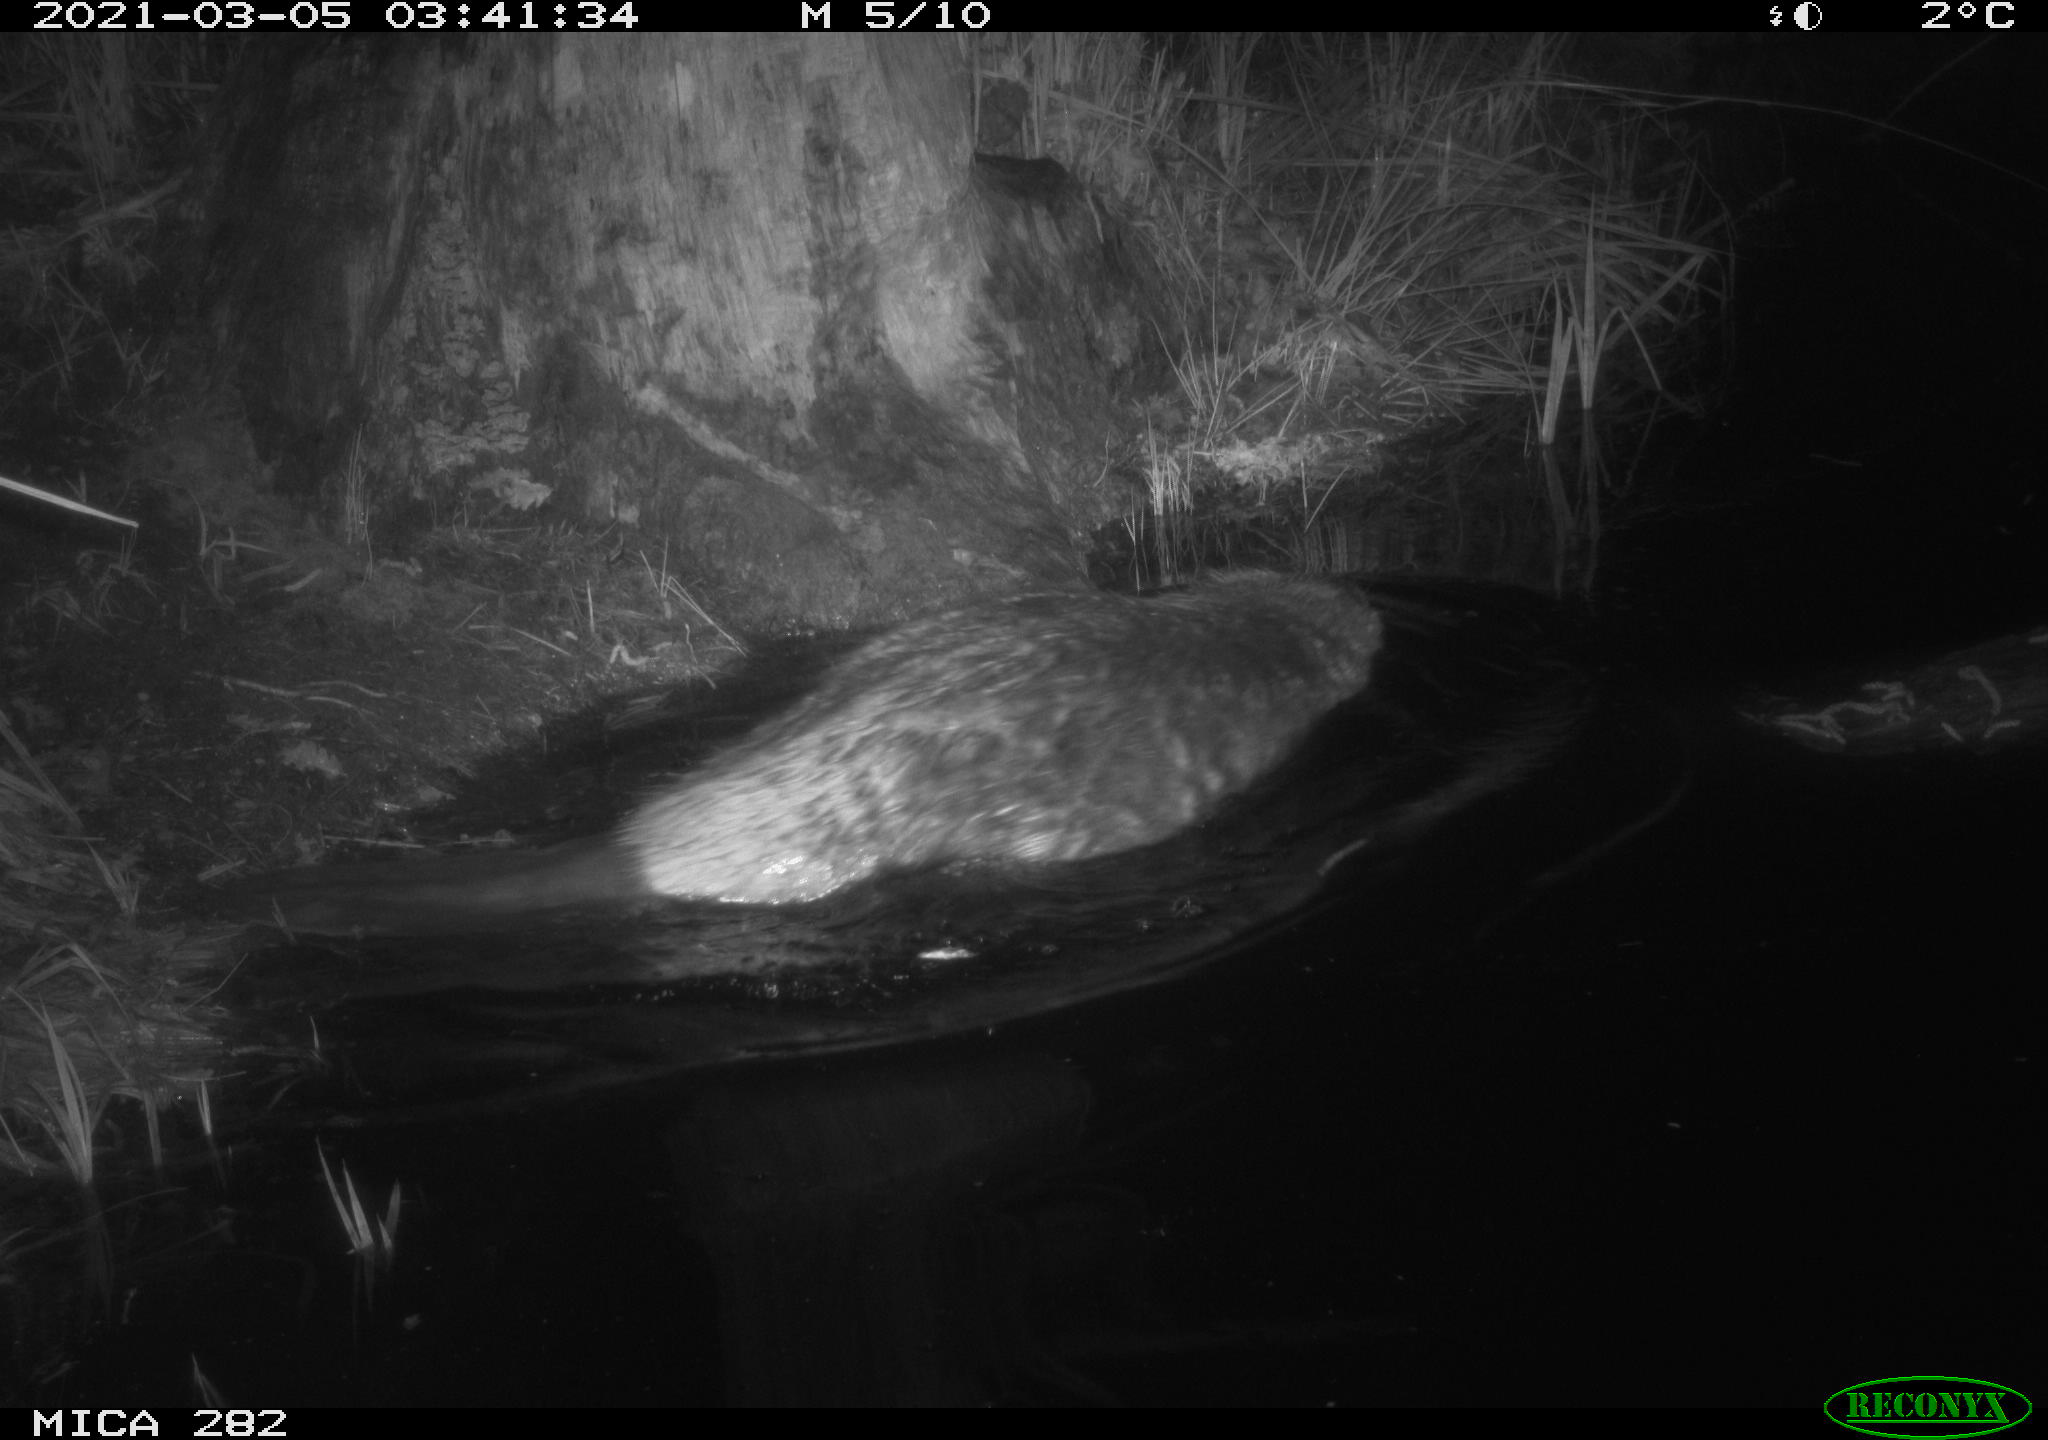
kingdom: Animalia
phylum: Chordata
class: Mammalia
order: Rodentia
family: Castoridae
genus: Castor
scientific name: Castor fiber
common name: Eurasian beaver
